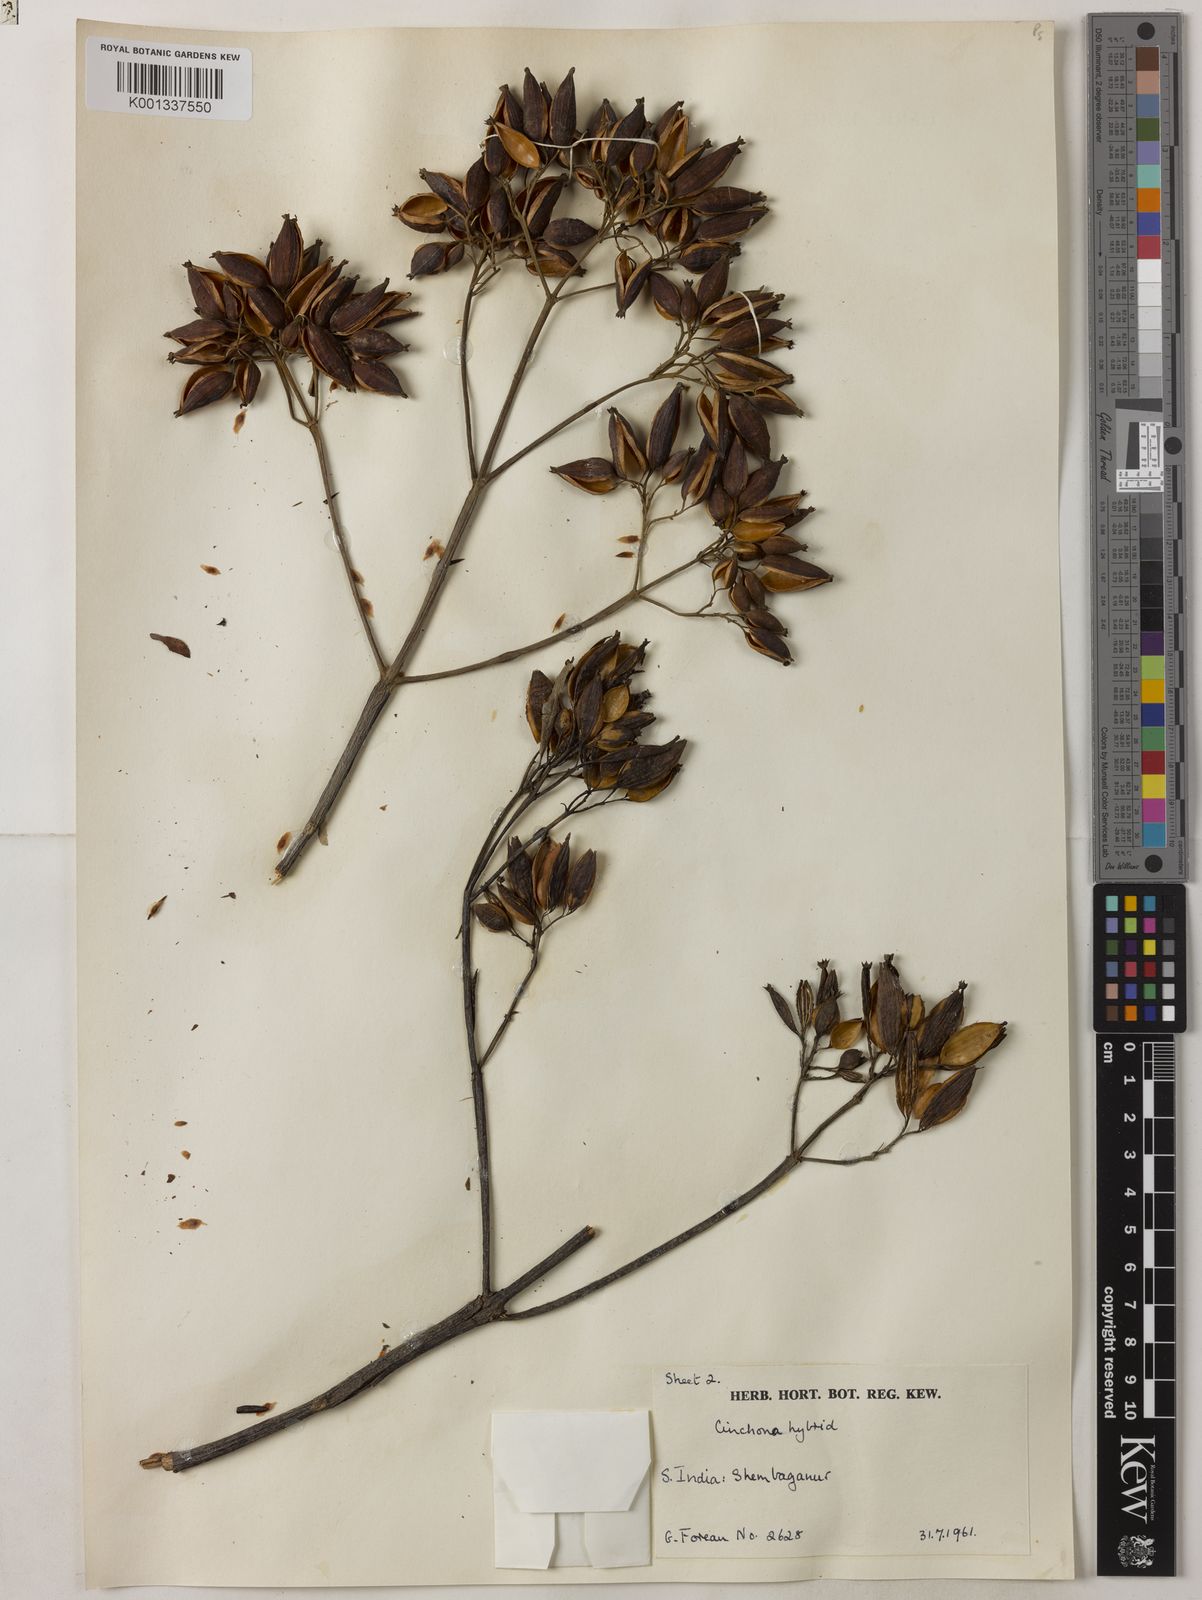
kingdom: Plantae
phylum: Tracheophyta
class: Magnoliopsida
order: Gentianales
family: Rubiaceae
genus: Cinchona
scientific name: Cinchona
